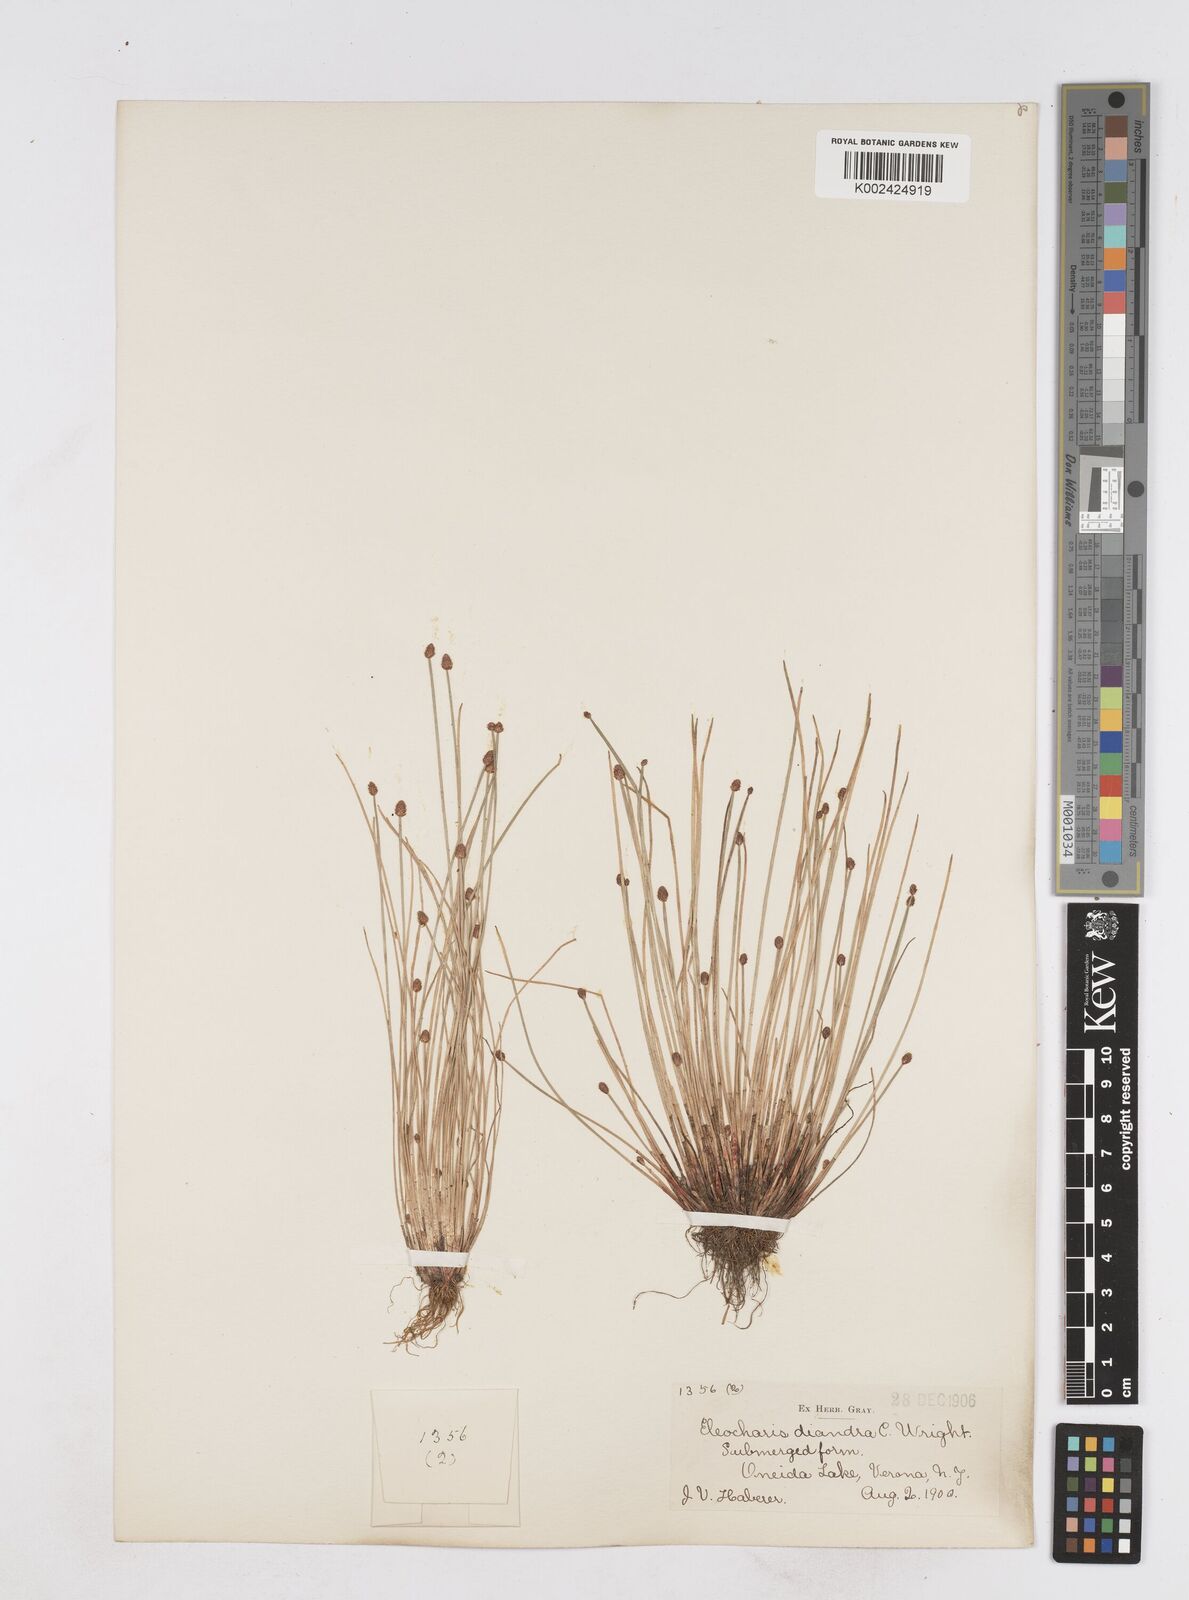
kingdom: Plantae
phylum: Tracheophyta
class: Liliopsida
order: Poales
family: Cyperaceae
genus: Eleocharis
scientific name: Eleocharis ovata
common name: Oval spike-rush
